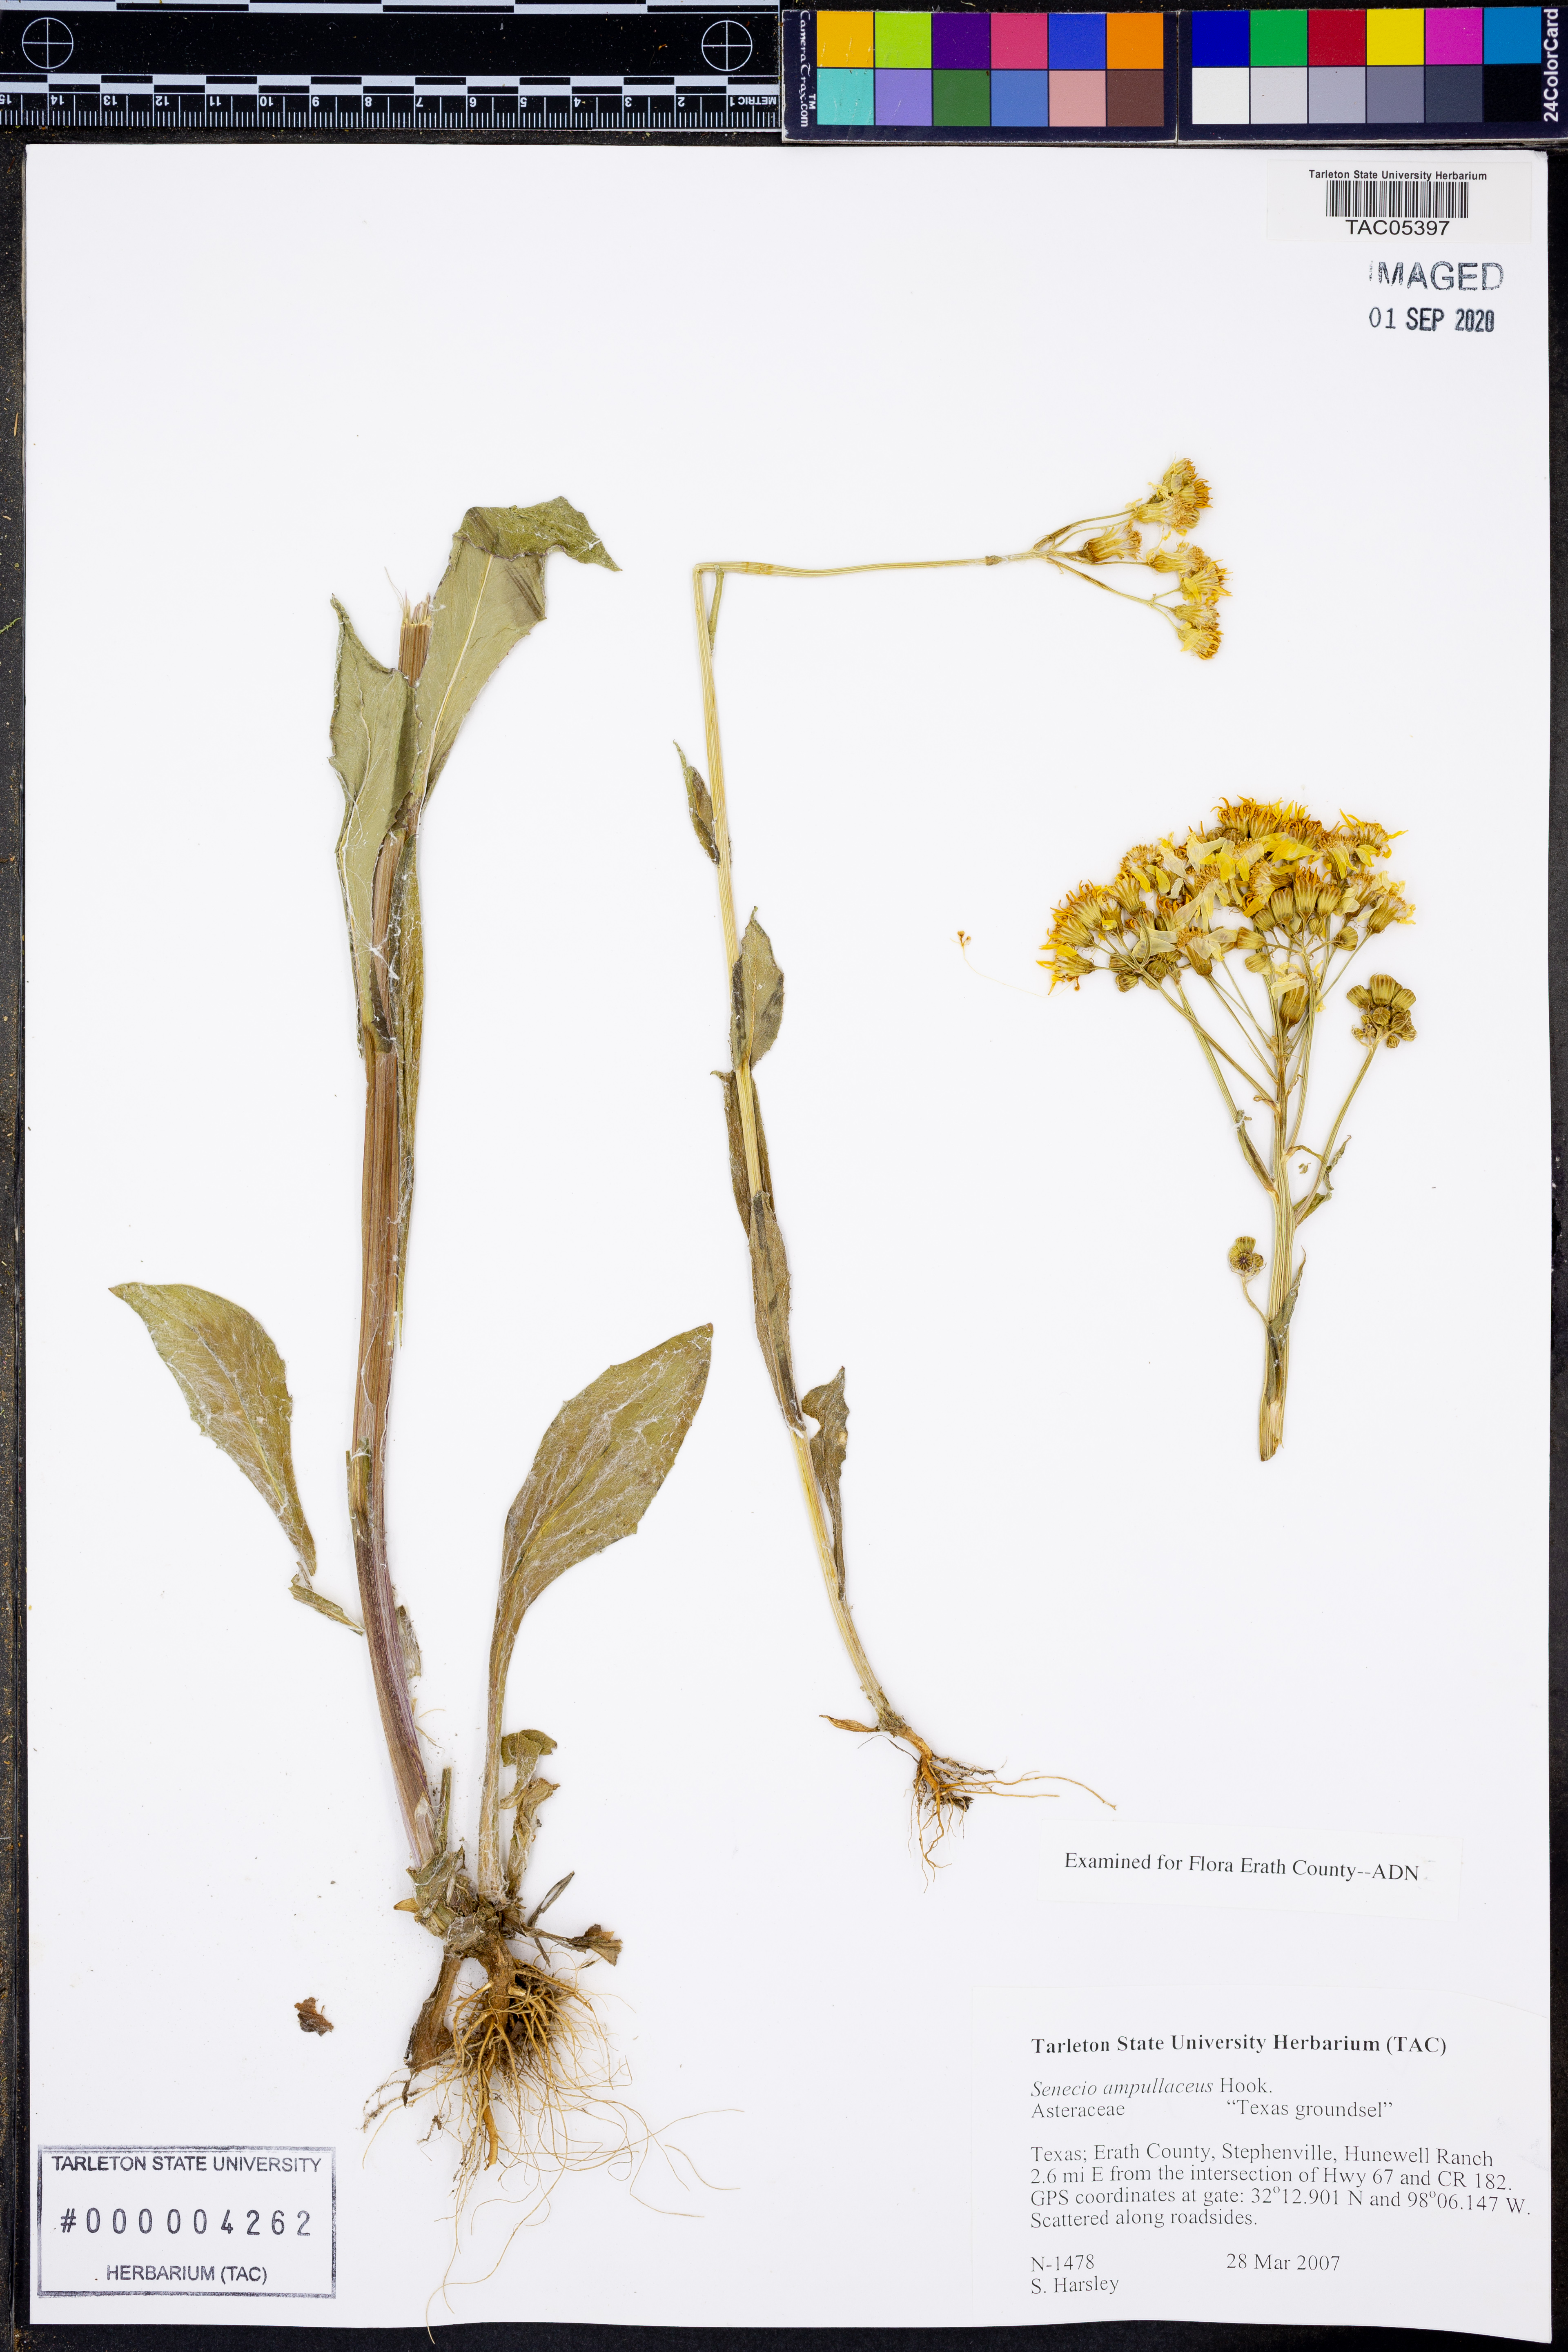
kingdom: Plantae
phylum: Tracheophyta
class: Magnoliopsida
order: Asterales
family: Asteraceae
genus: Senecio
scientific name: Senecio ampullaceus
